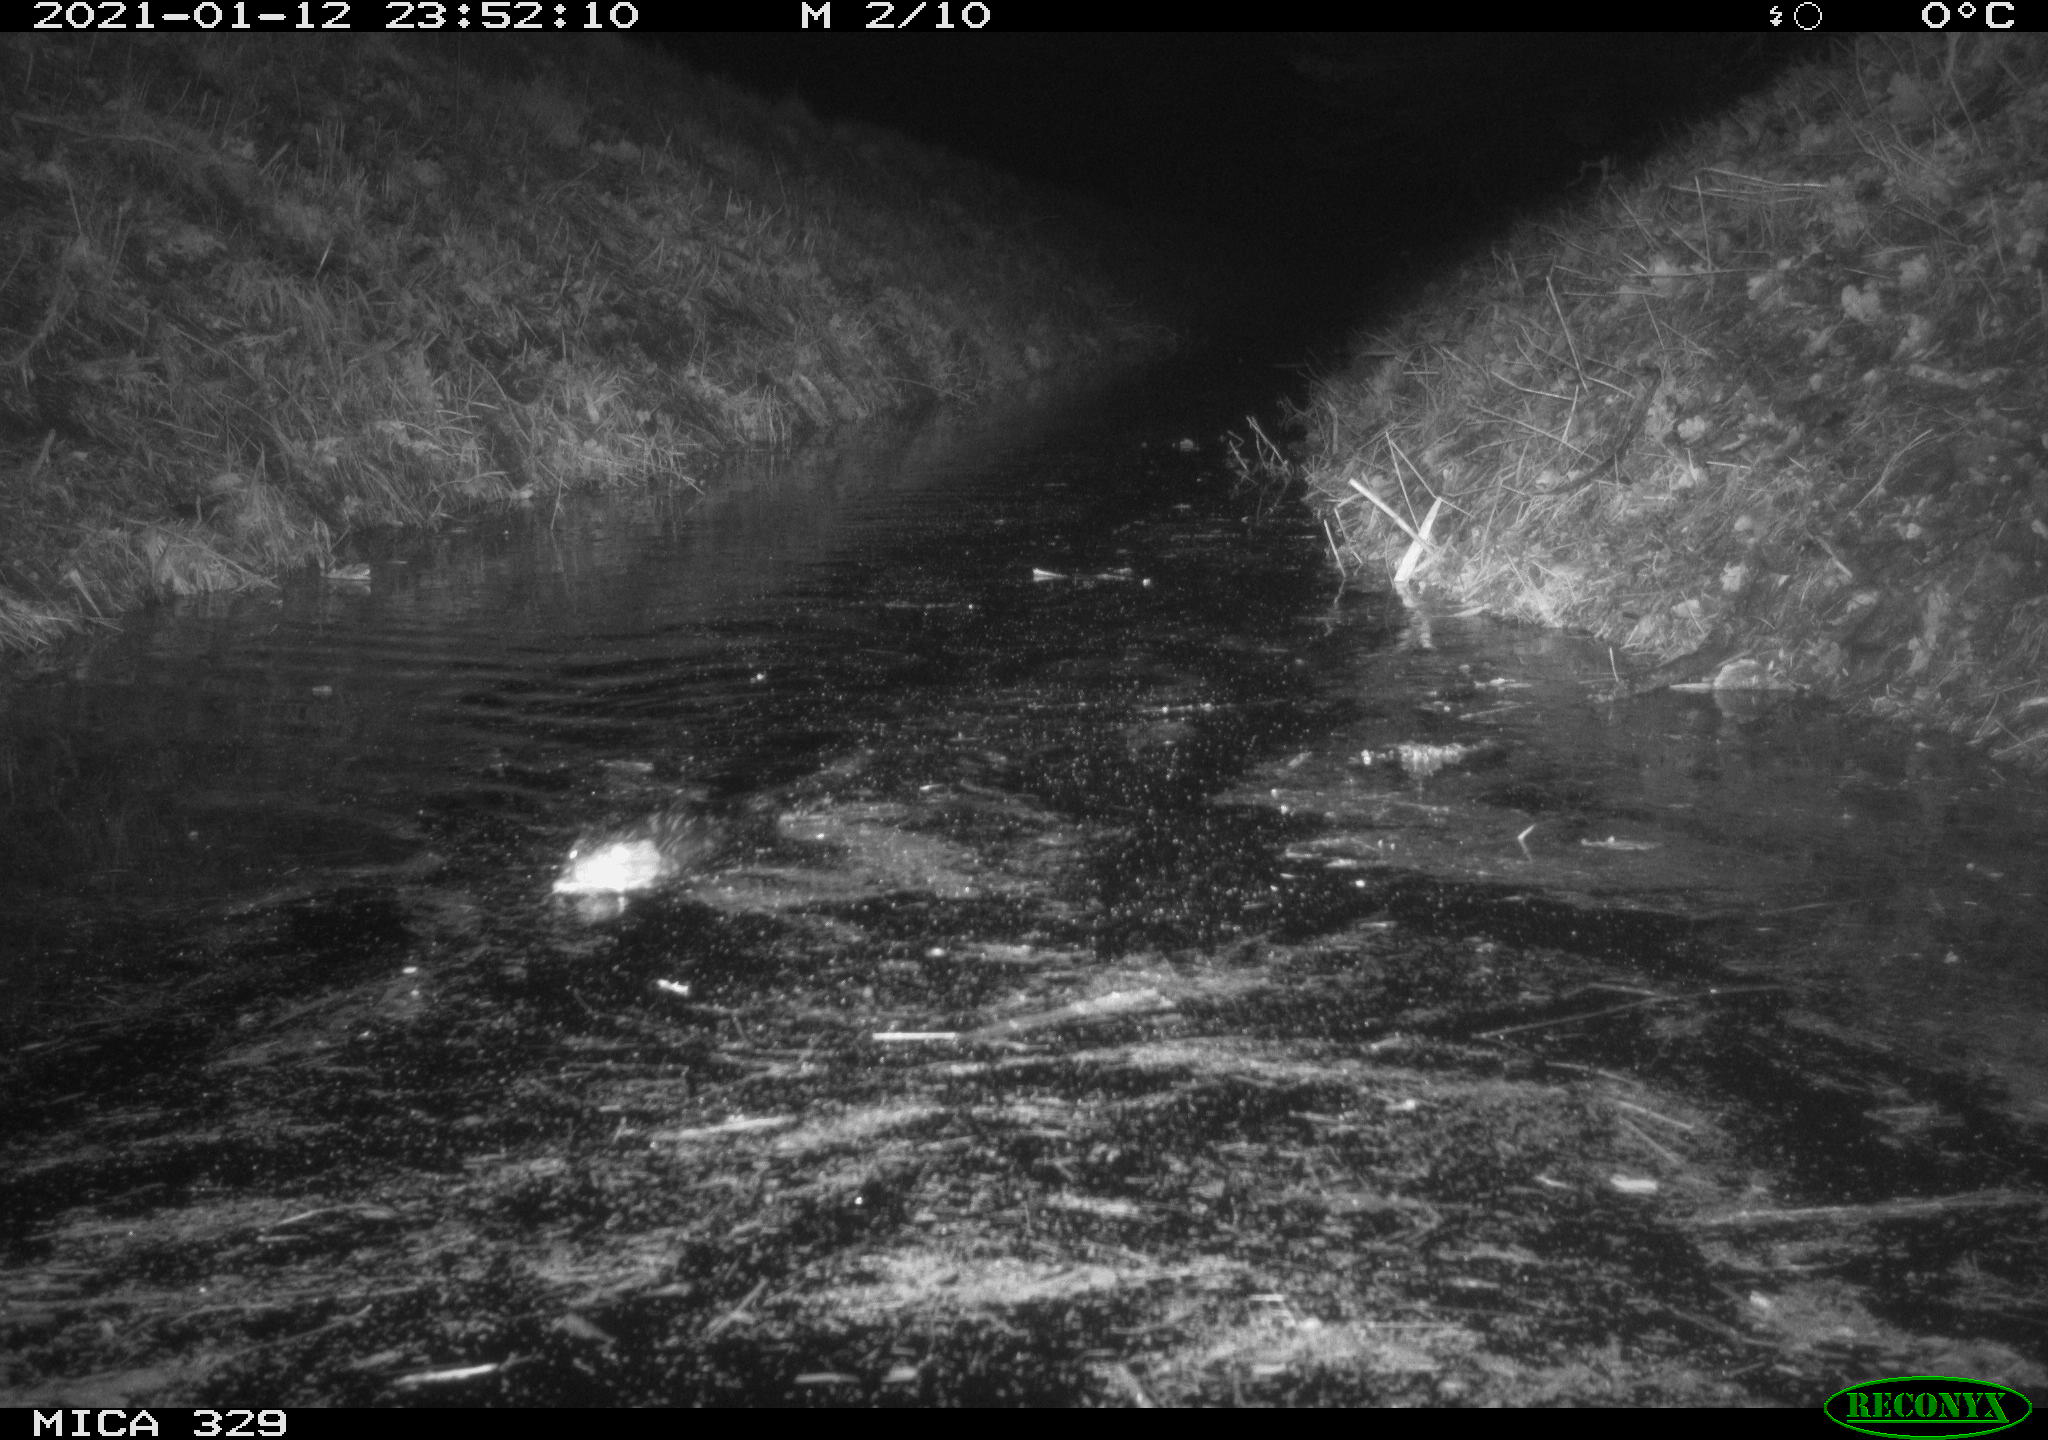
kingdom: Animalia
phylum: Chordata
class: Mammalia
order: Rodentia
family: Cricetidae
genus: Ondatra
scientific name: Ondatra zibethicus
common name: Muskrat
